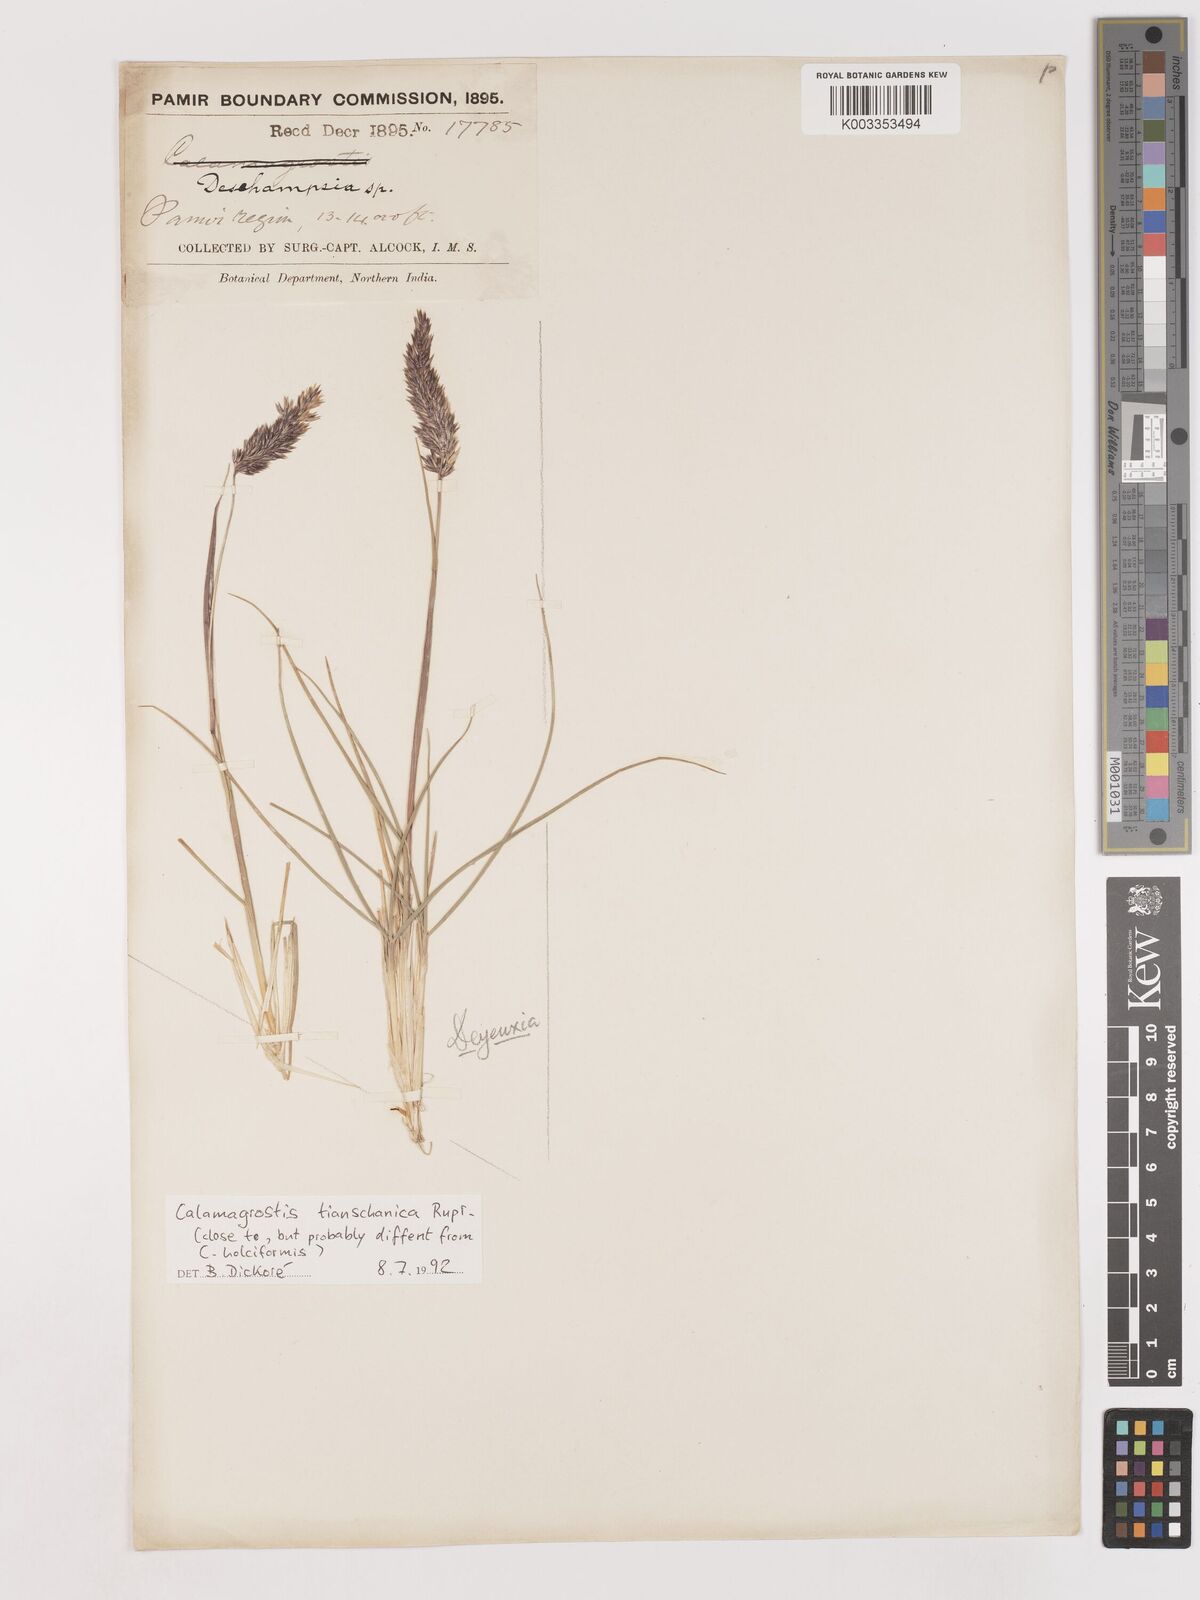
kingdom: Plantae
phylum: Tracheophyta
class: Liliopsida
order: Poales
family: Poaceae
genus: Calamagrostis
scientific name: Calamagrostis tianschanica
